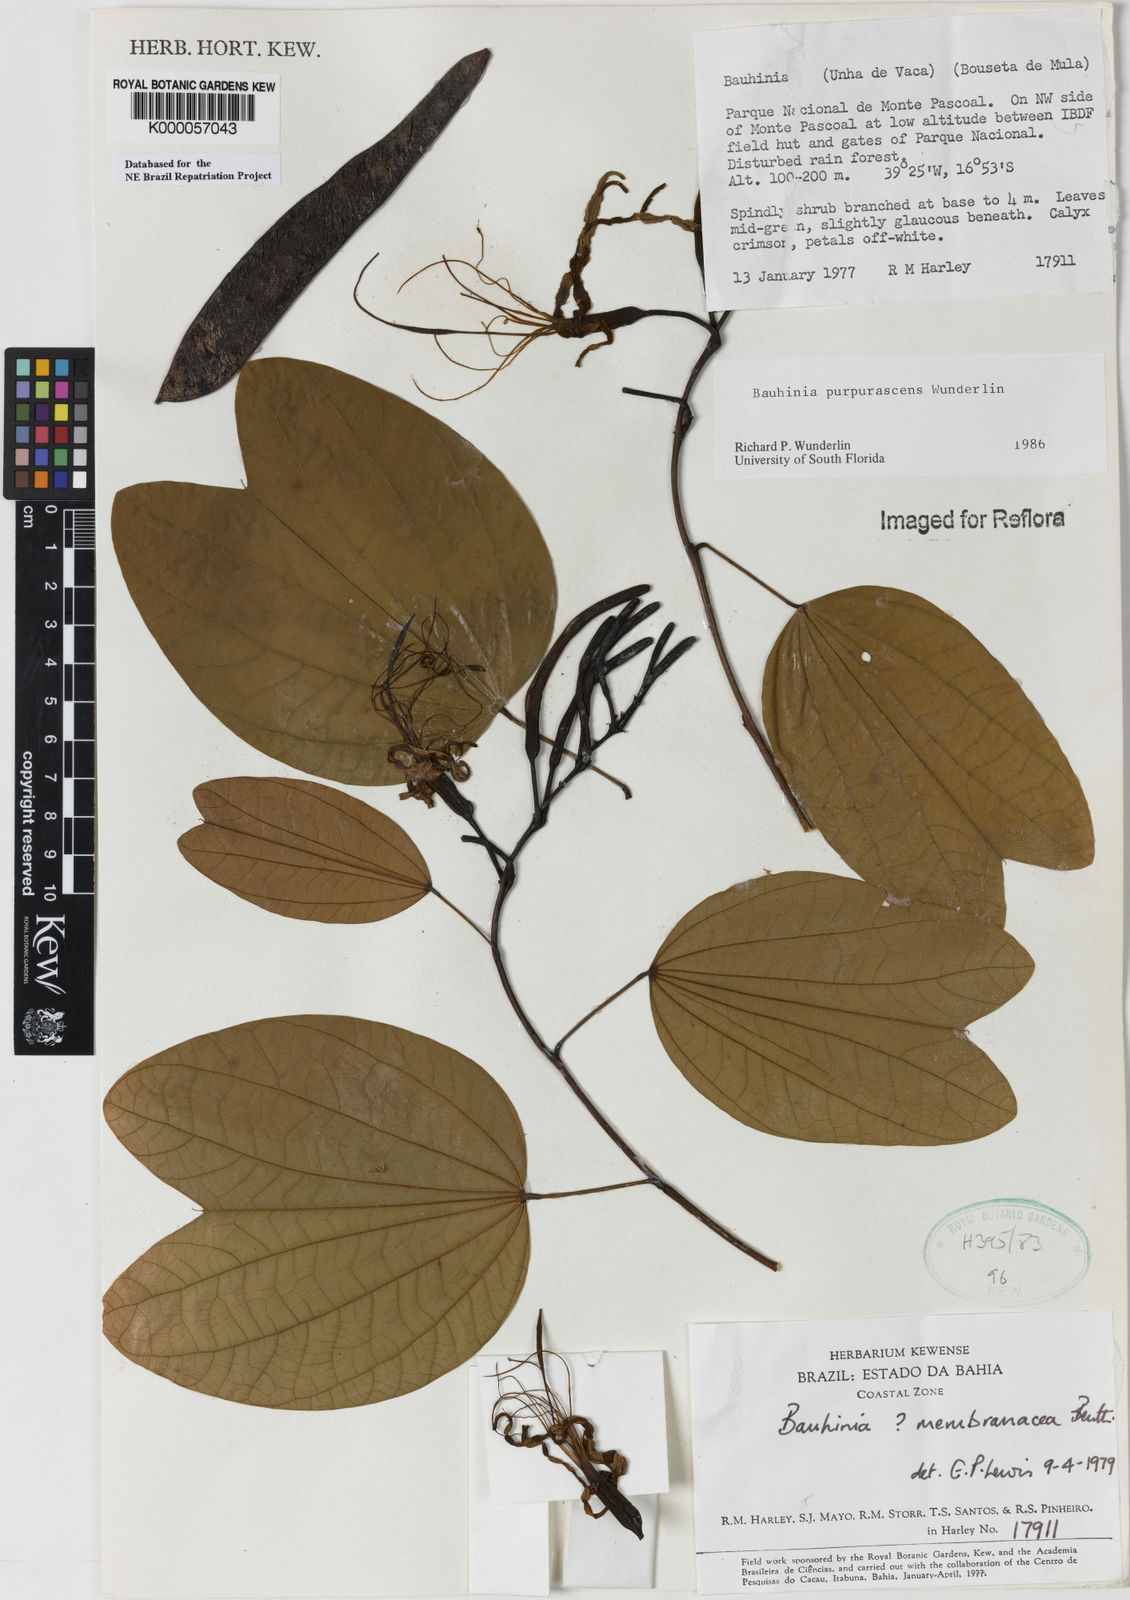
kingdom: Plantae
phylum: Tracheophyta
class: Magnoliopsida
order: Fabales
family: Fabaceae
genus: Bauhinia
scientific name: Bauhinia
